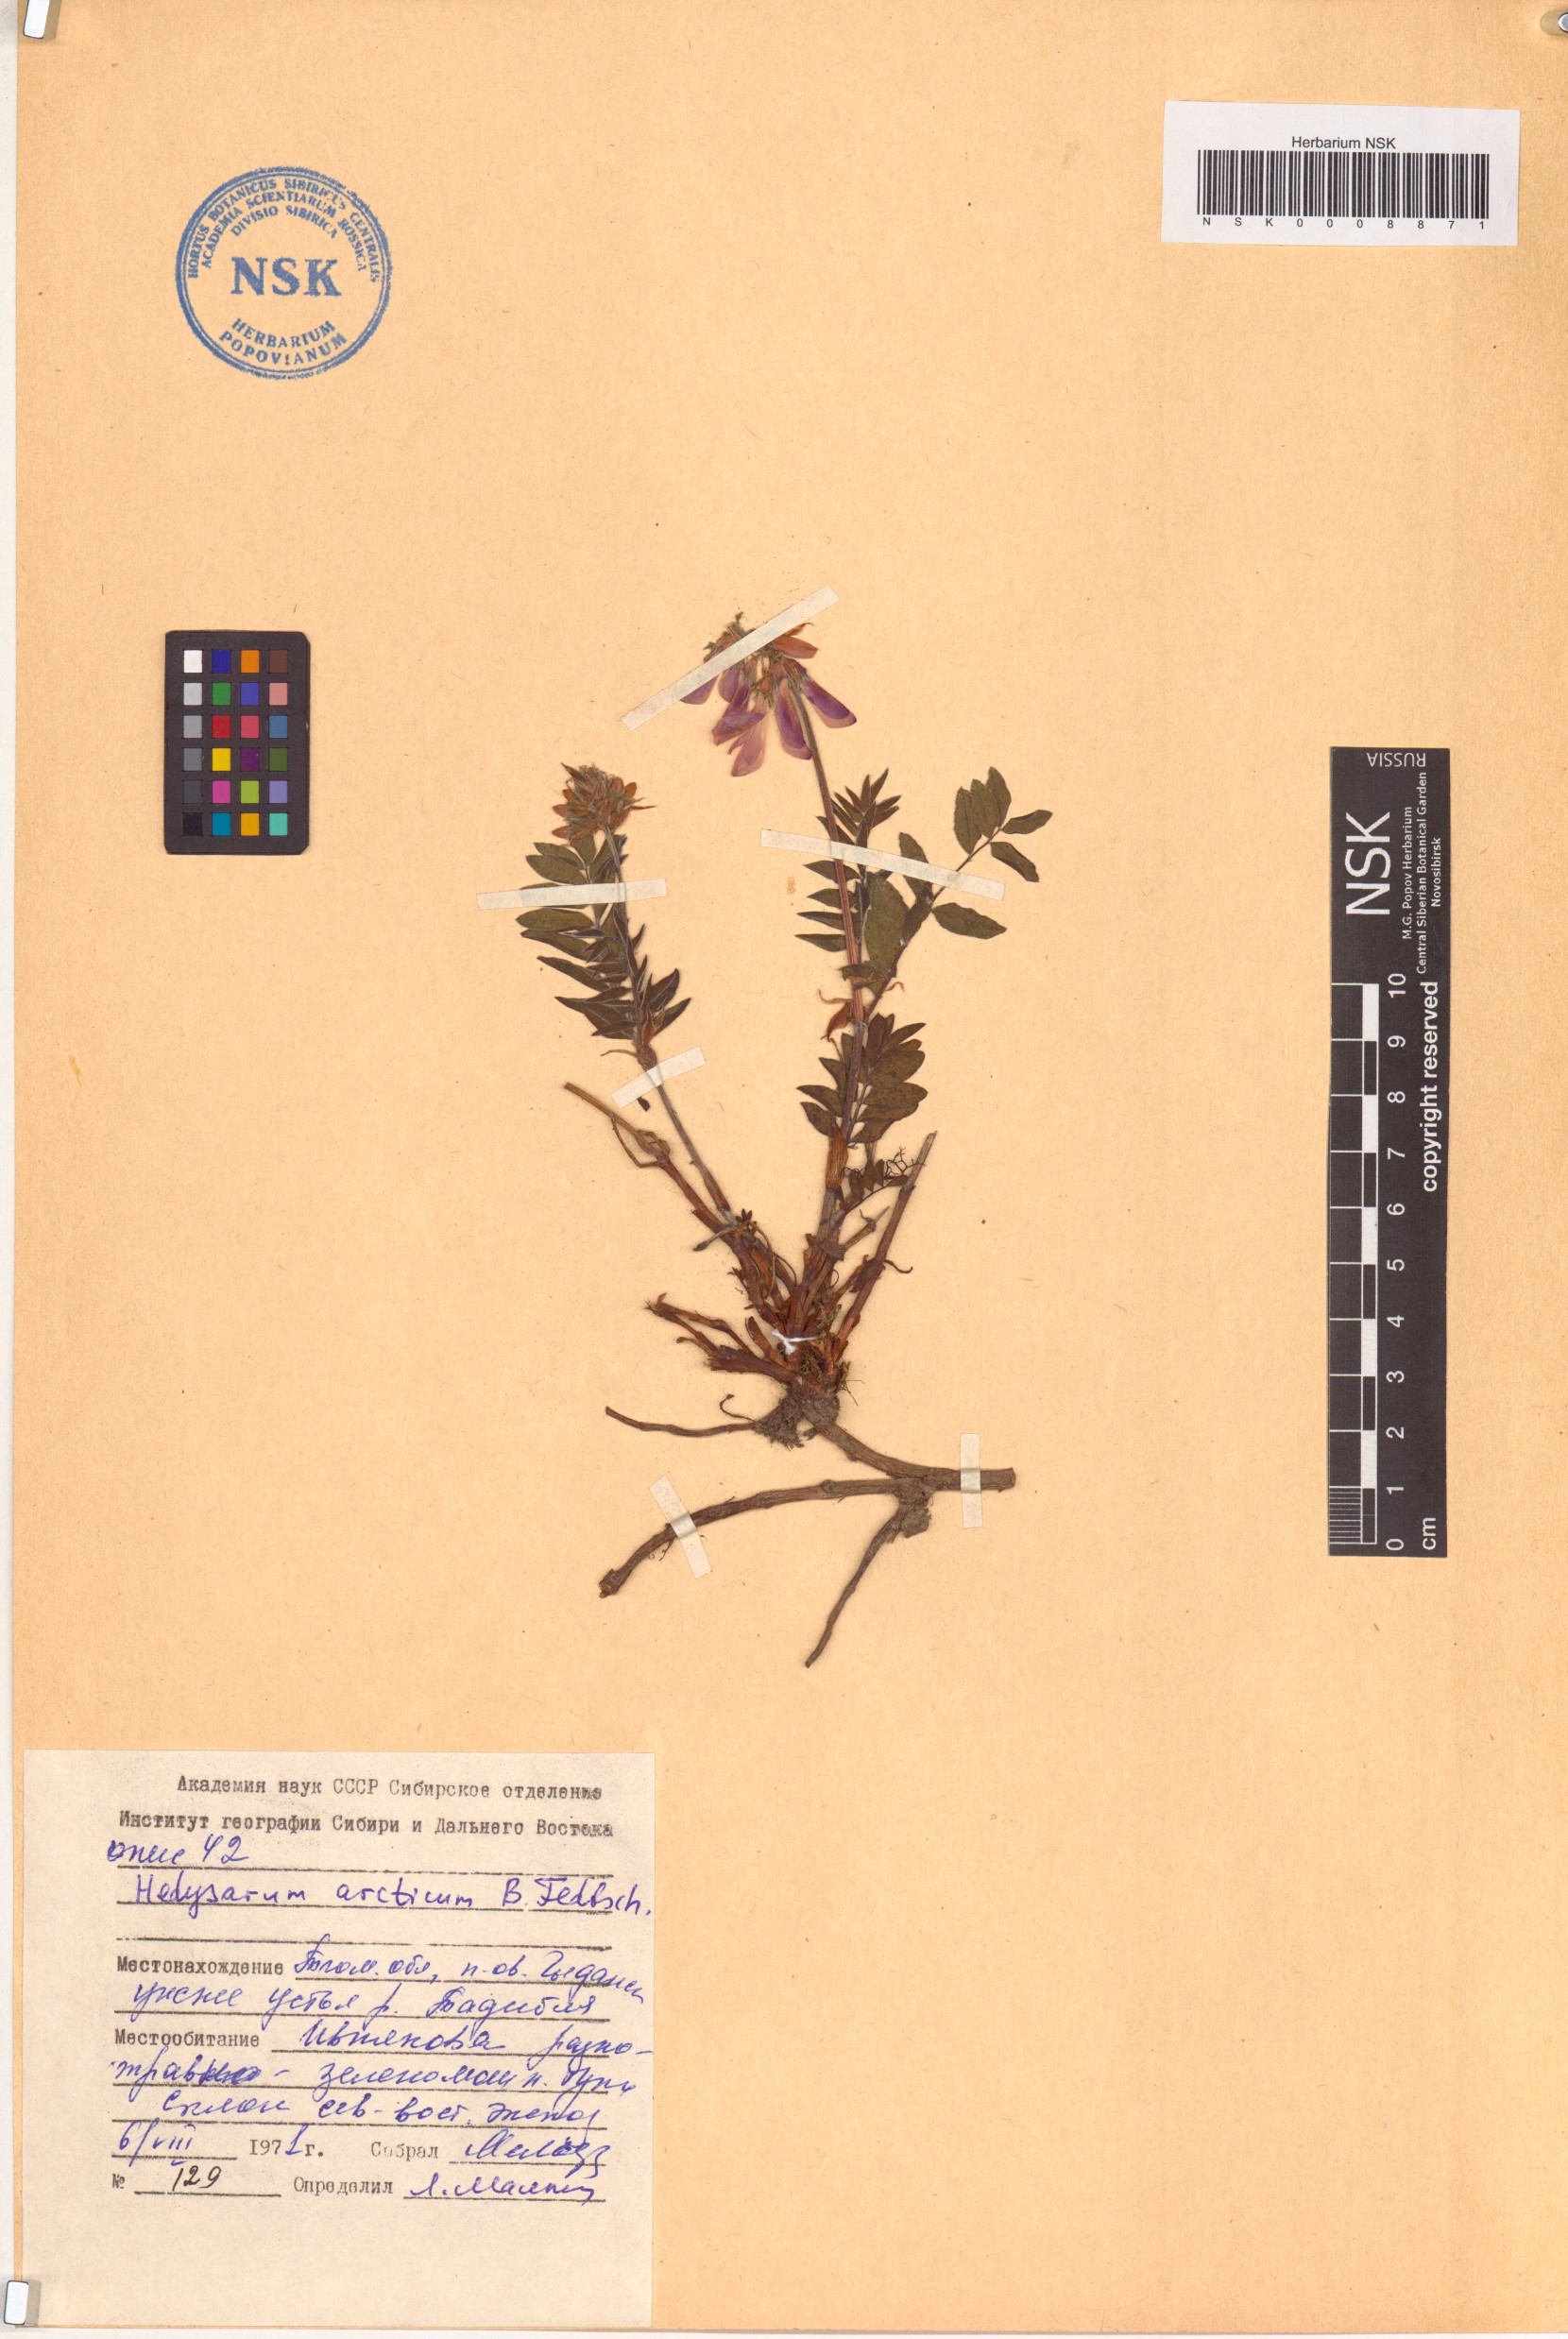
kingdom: Plantae
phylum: Tracheophyta
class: Magnoliopsida
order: Fabales
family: Fabaceae
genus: Hedysarum
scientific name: Hedysarum hedysaroides
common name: Alpine french-honeysuckle
